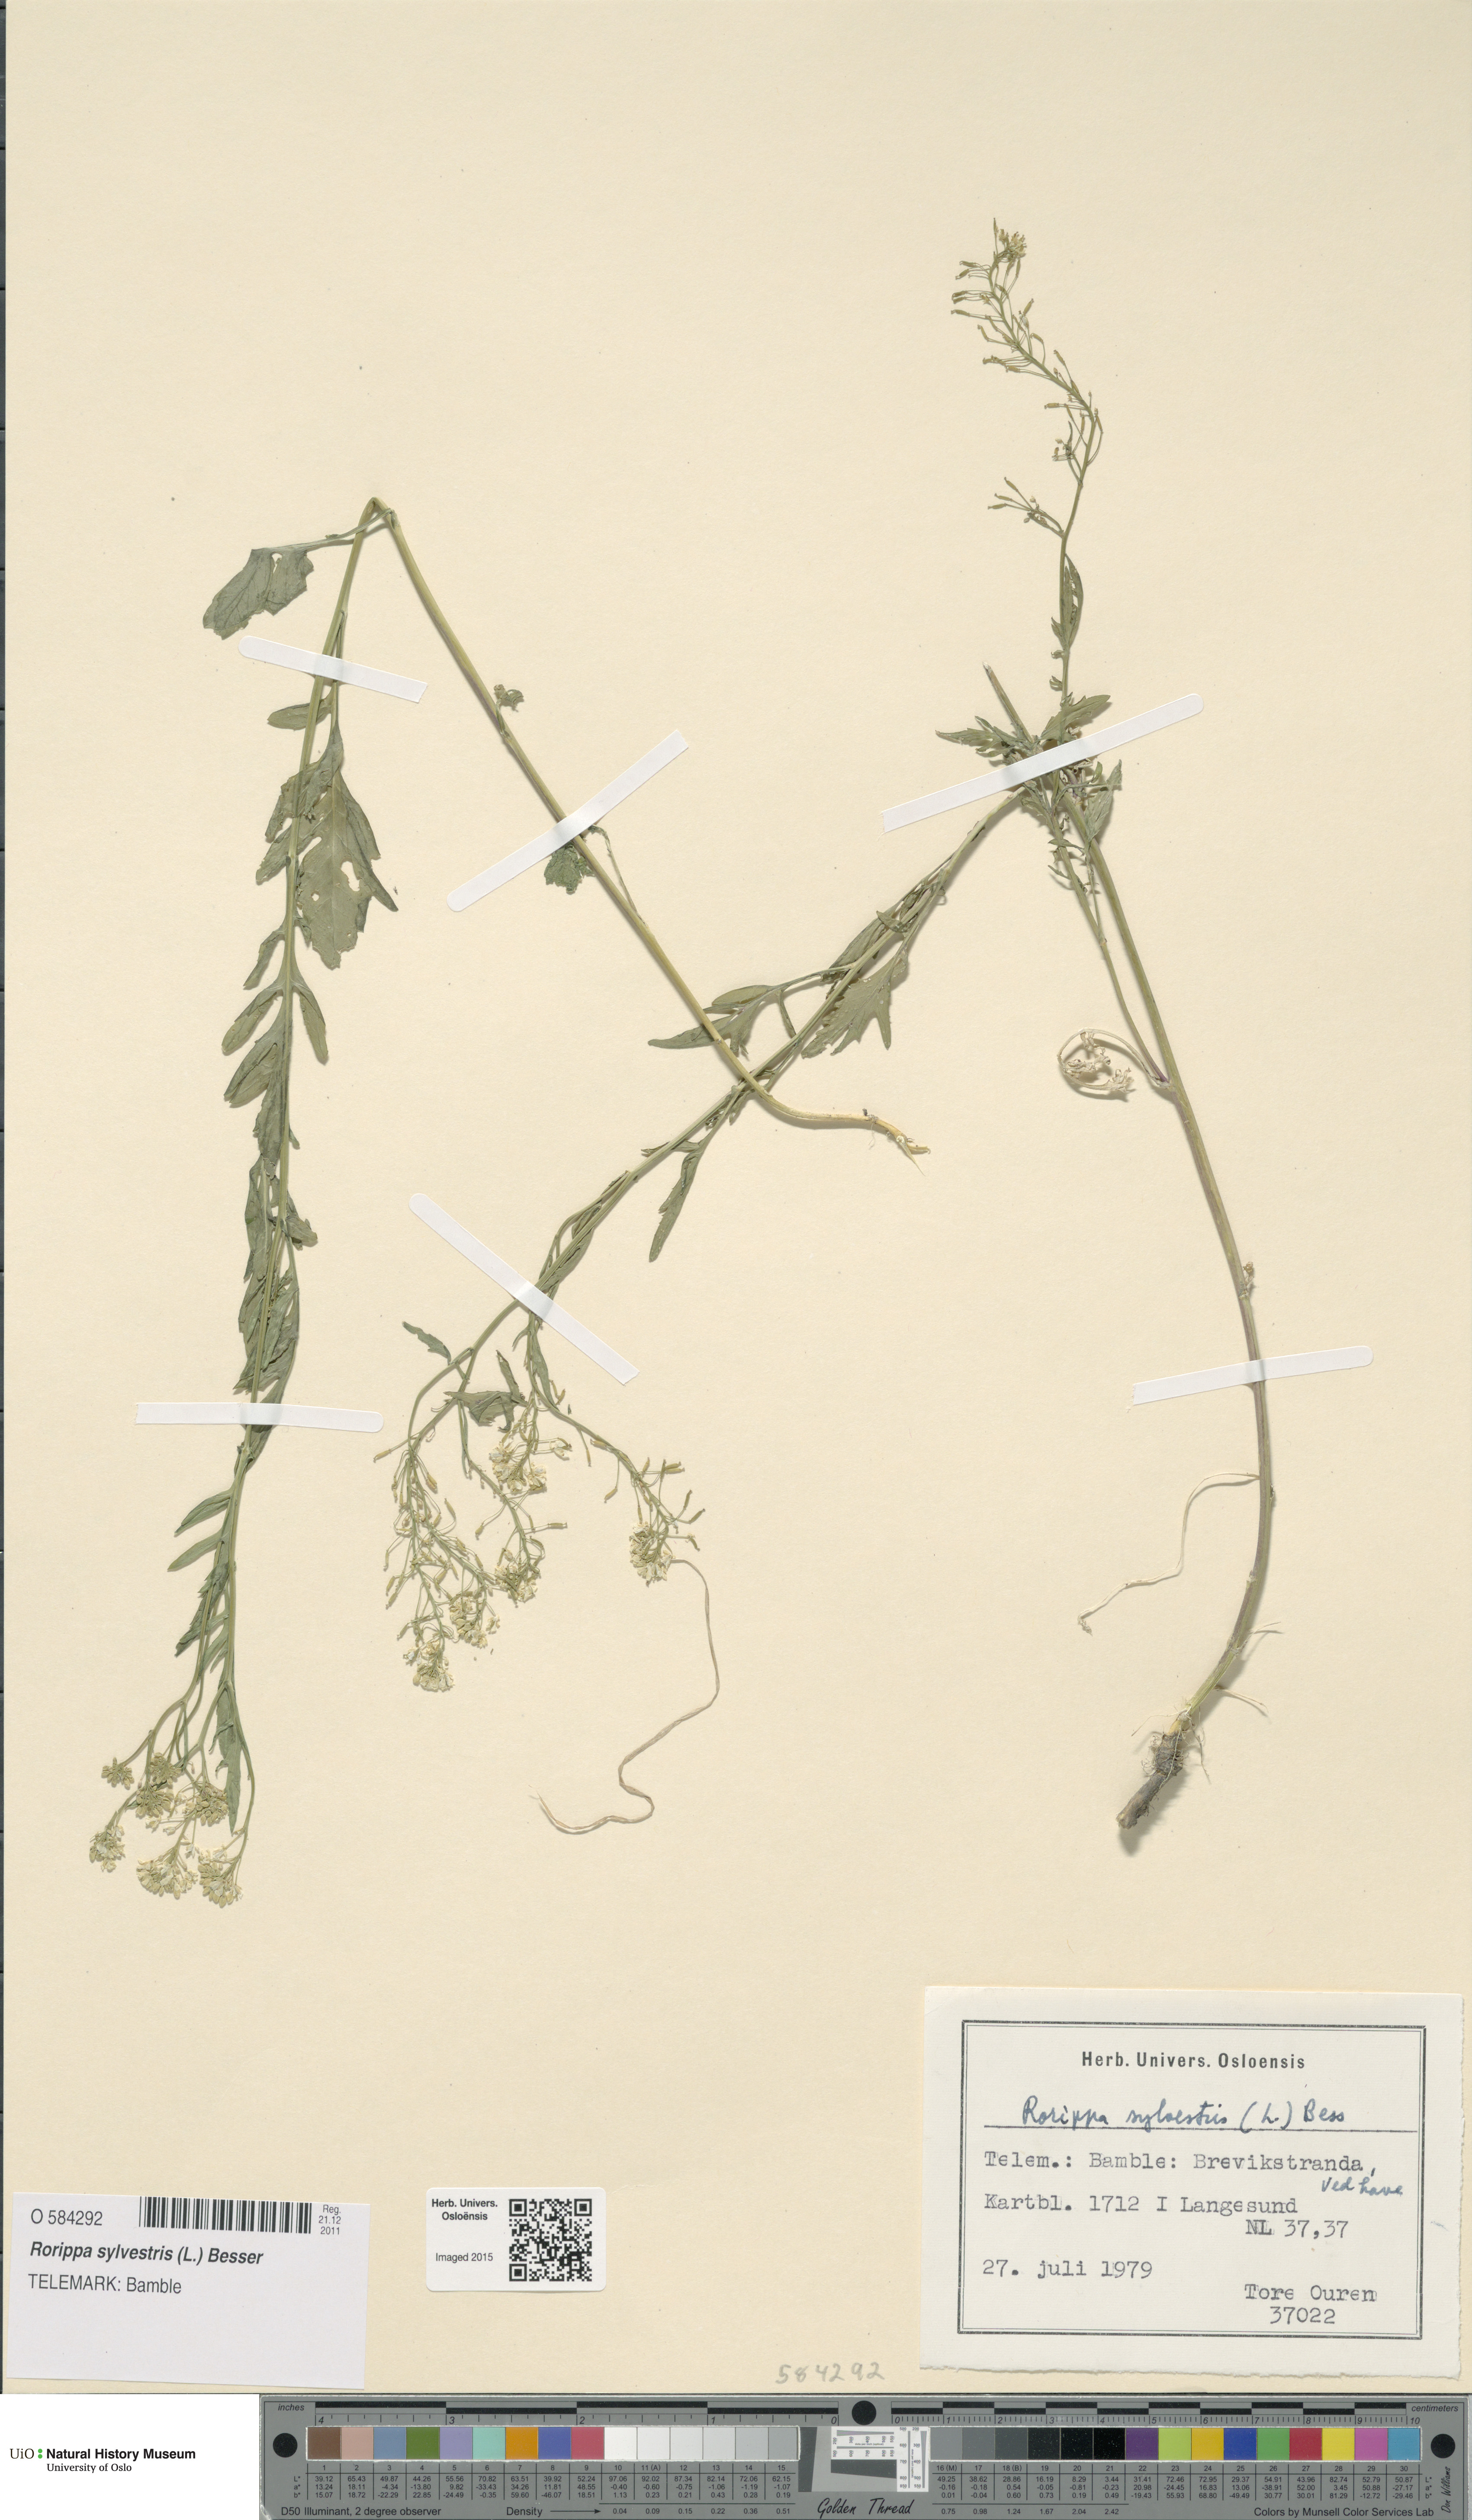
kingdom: Plantae
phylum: Tracheophyta
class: Magnoliopsida
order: Brassicales
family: Brassicaceae
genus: Rorippa
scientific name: Rorippa sylvestris
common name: Creeping yellowcress
